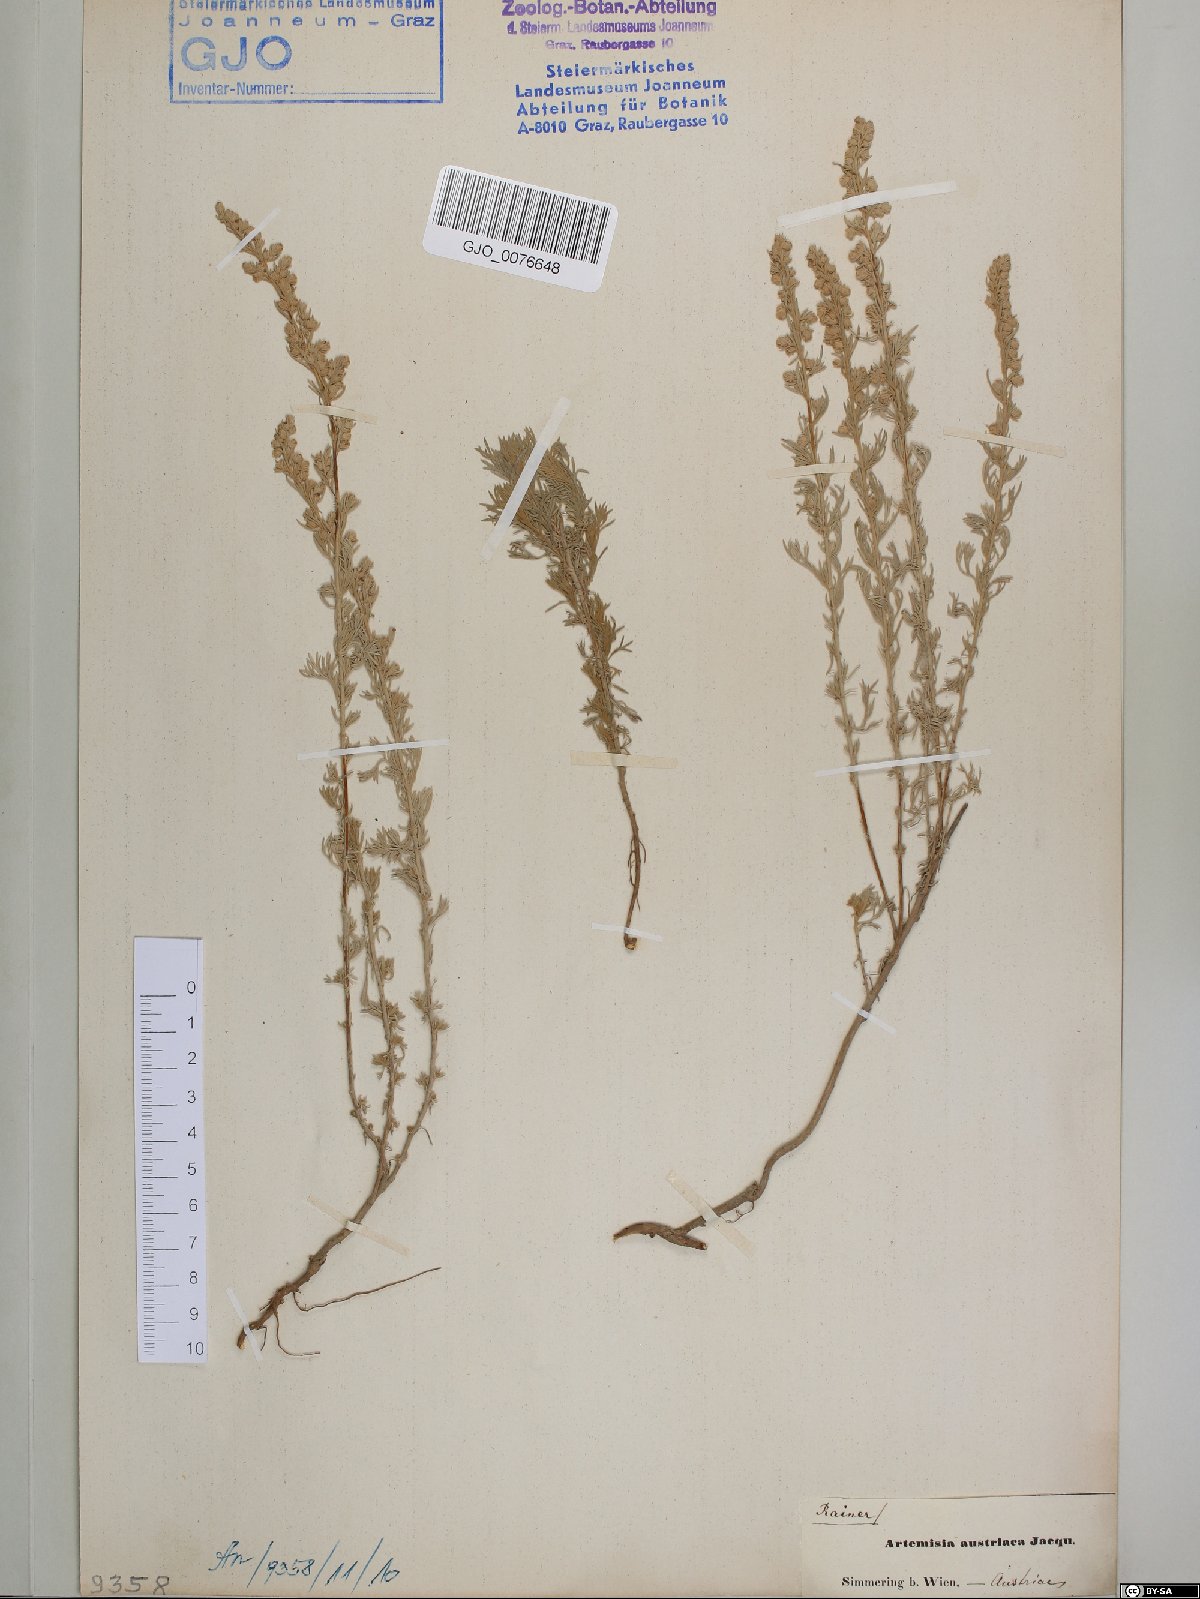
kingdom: Plantae
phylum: Tracheophyta
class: Magnoliopsida
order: Asterales
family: Asteraceae
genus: Artemisia
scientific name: Artemisia austriaca
